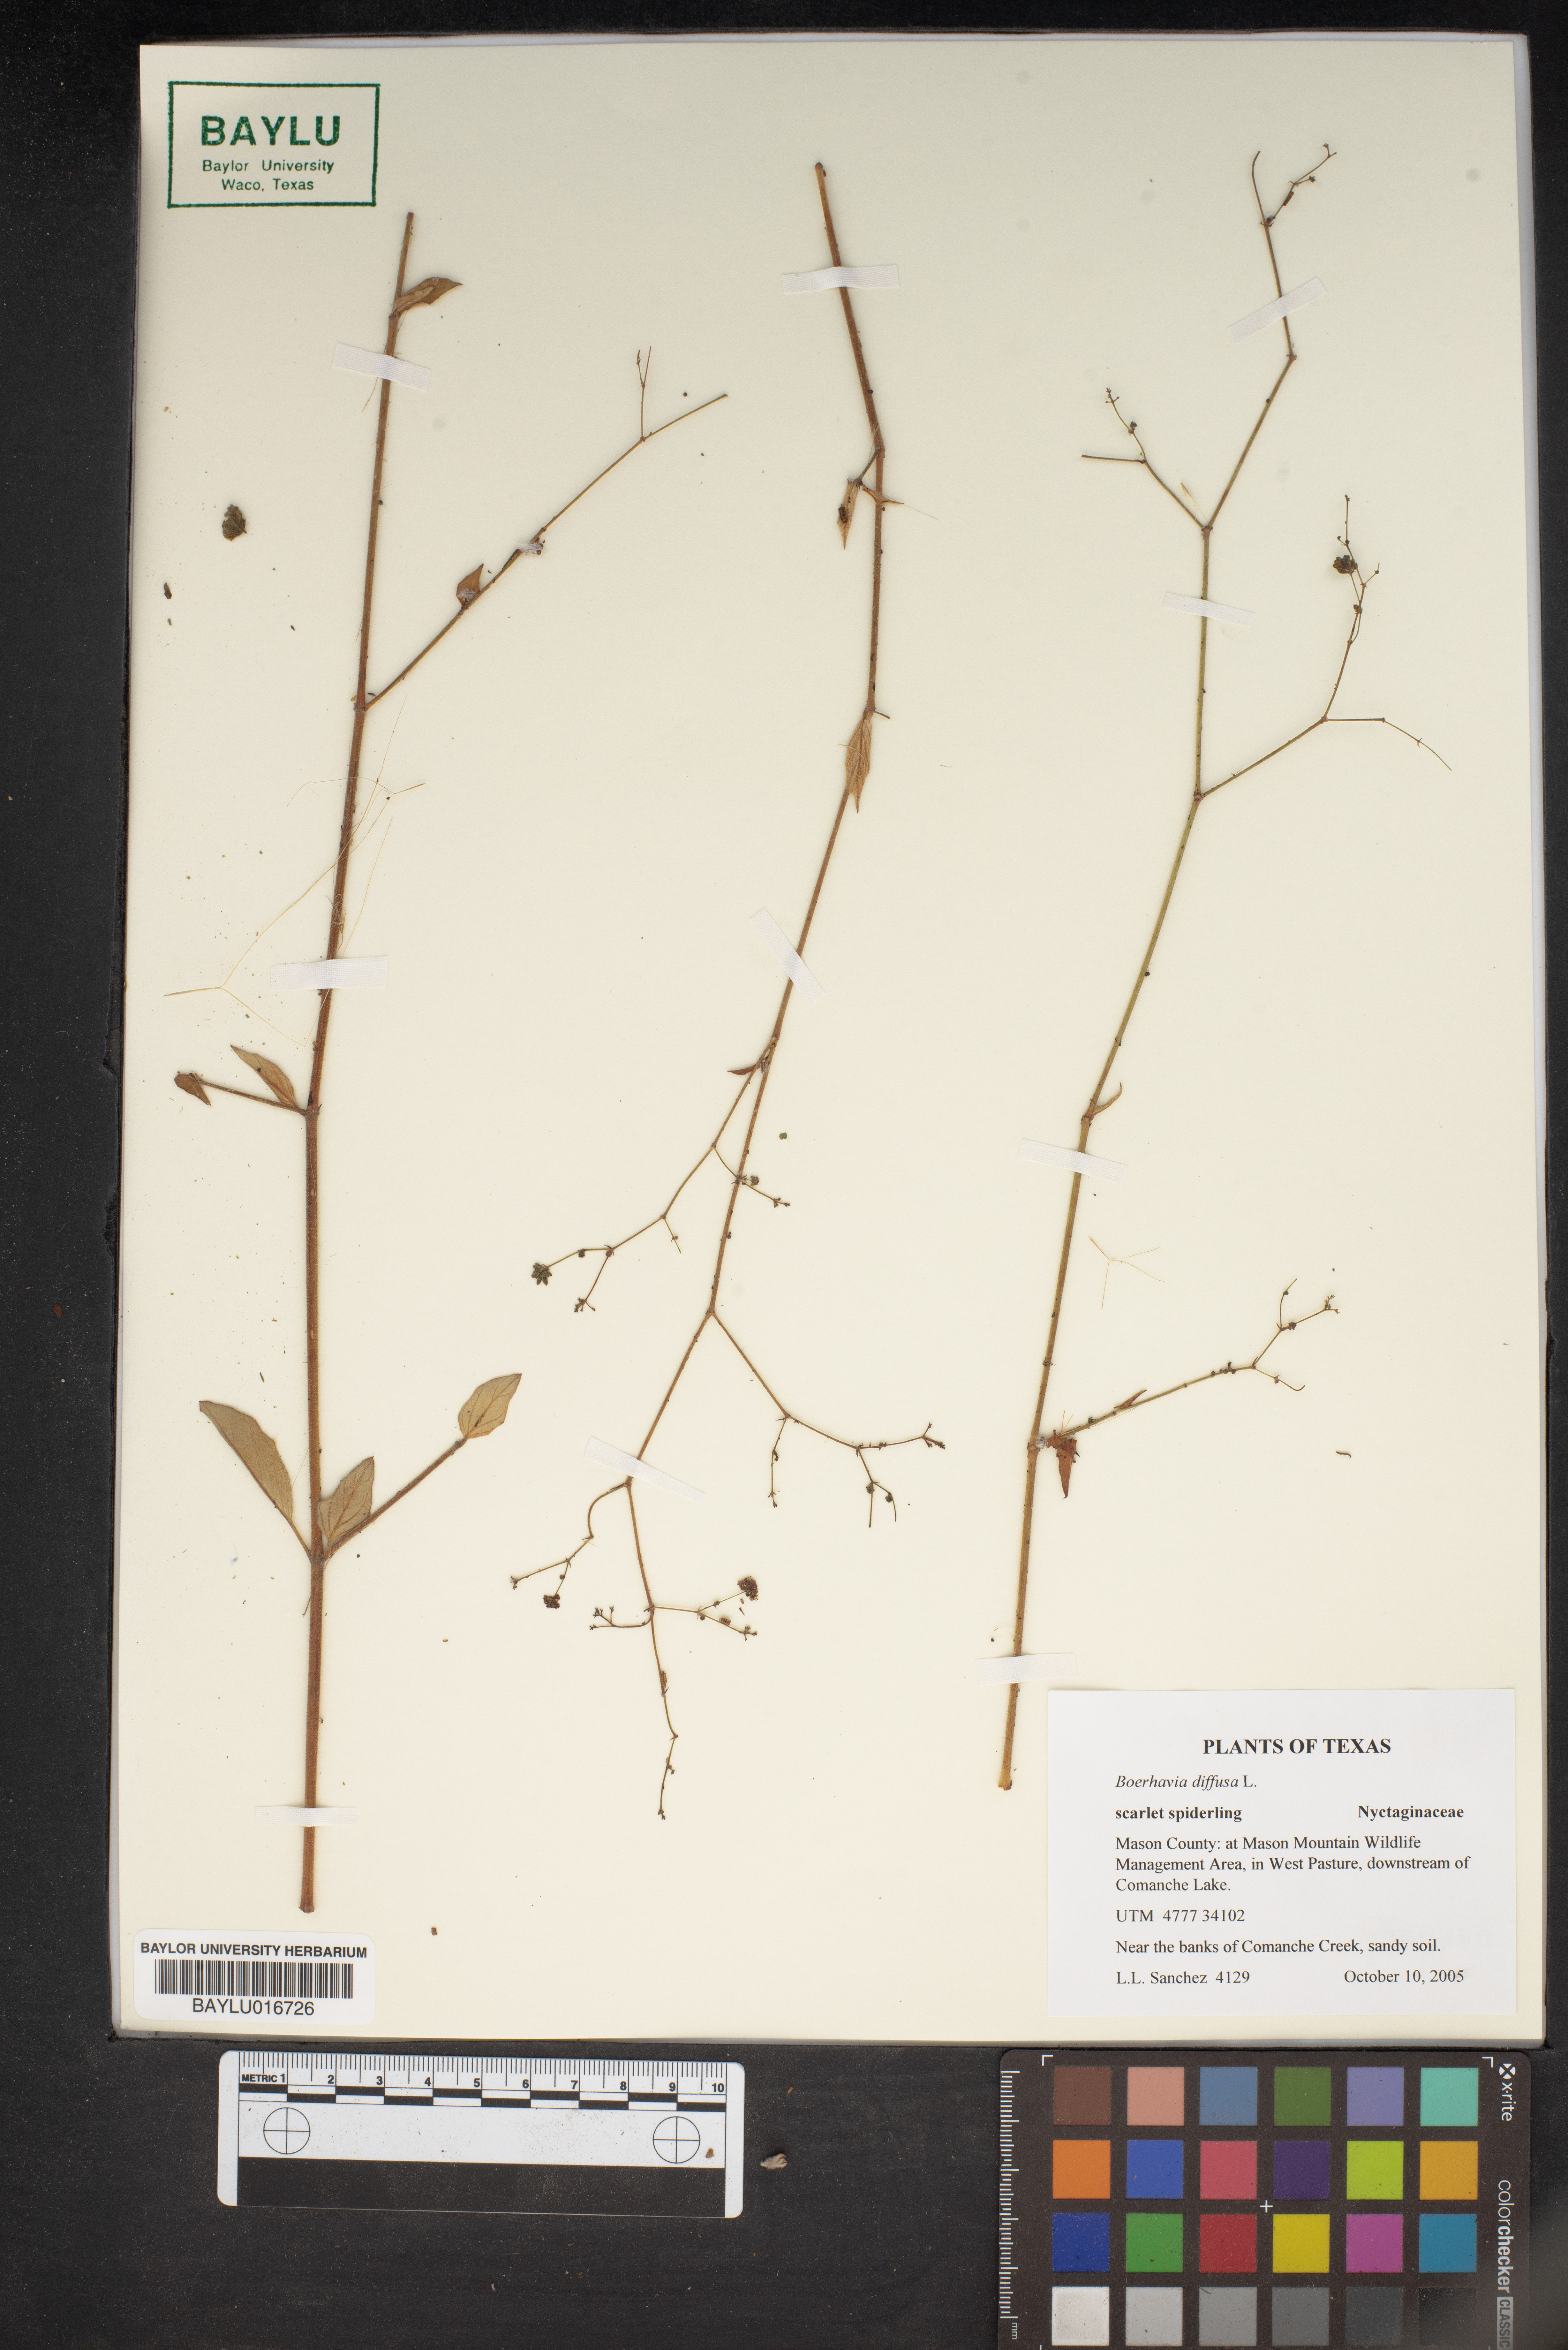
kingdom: Plantae
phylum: Tracheophyta
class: Magnoliopsida
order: Caryophyllales
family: Nyctaginaceae
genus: Boerhavia
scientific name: Boerhavia diffusa
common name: Red spiderling
